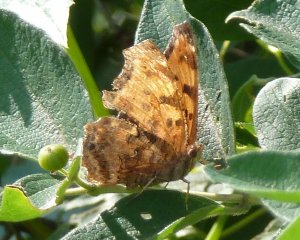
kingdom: Animalia
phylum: Arthropoda
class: Insecta
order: Lepidoptera
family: Nymphalidae
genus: Polygonia
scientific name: Polygonia comma
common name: Eastern Comma
